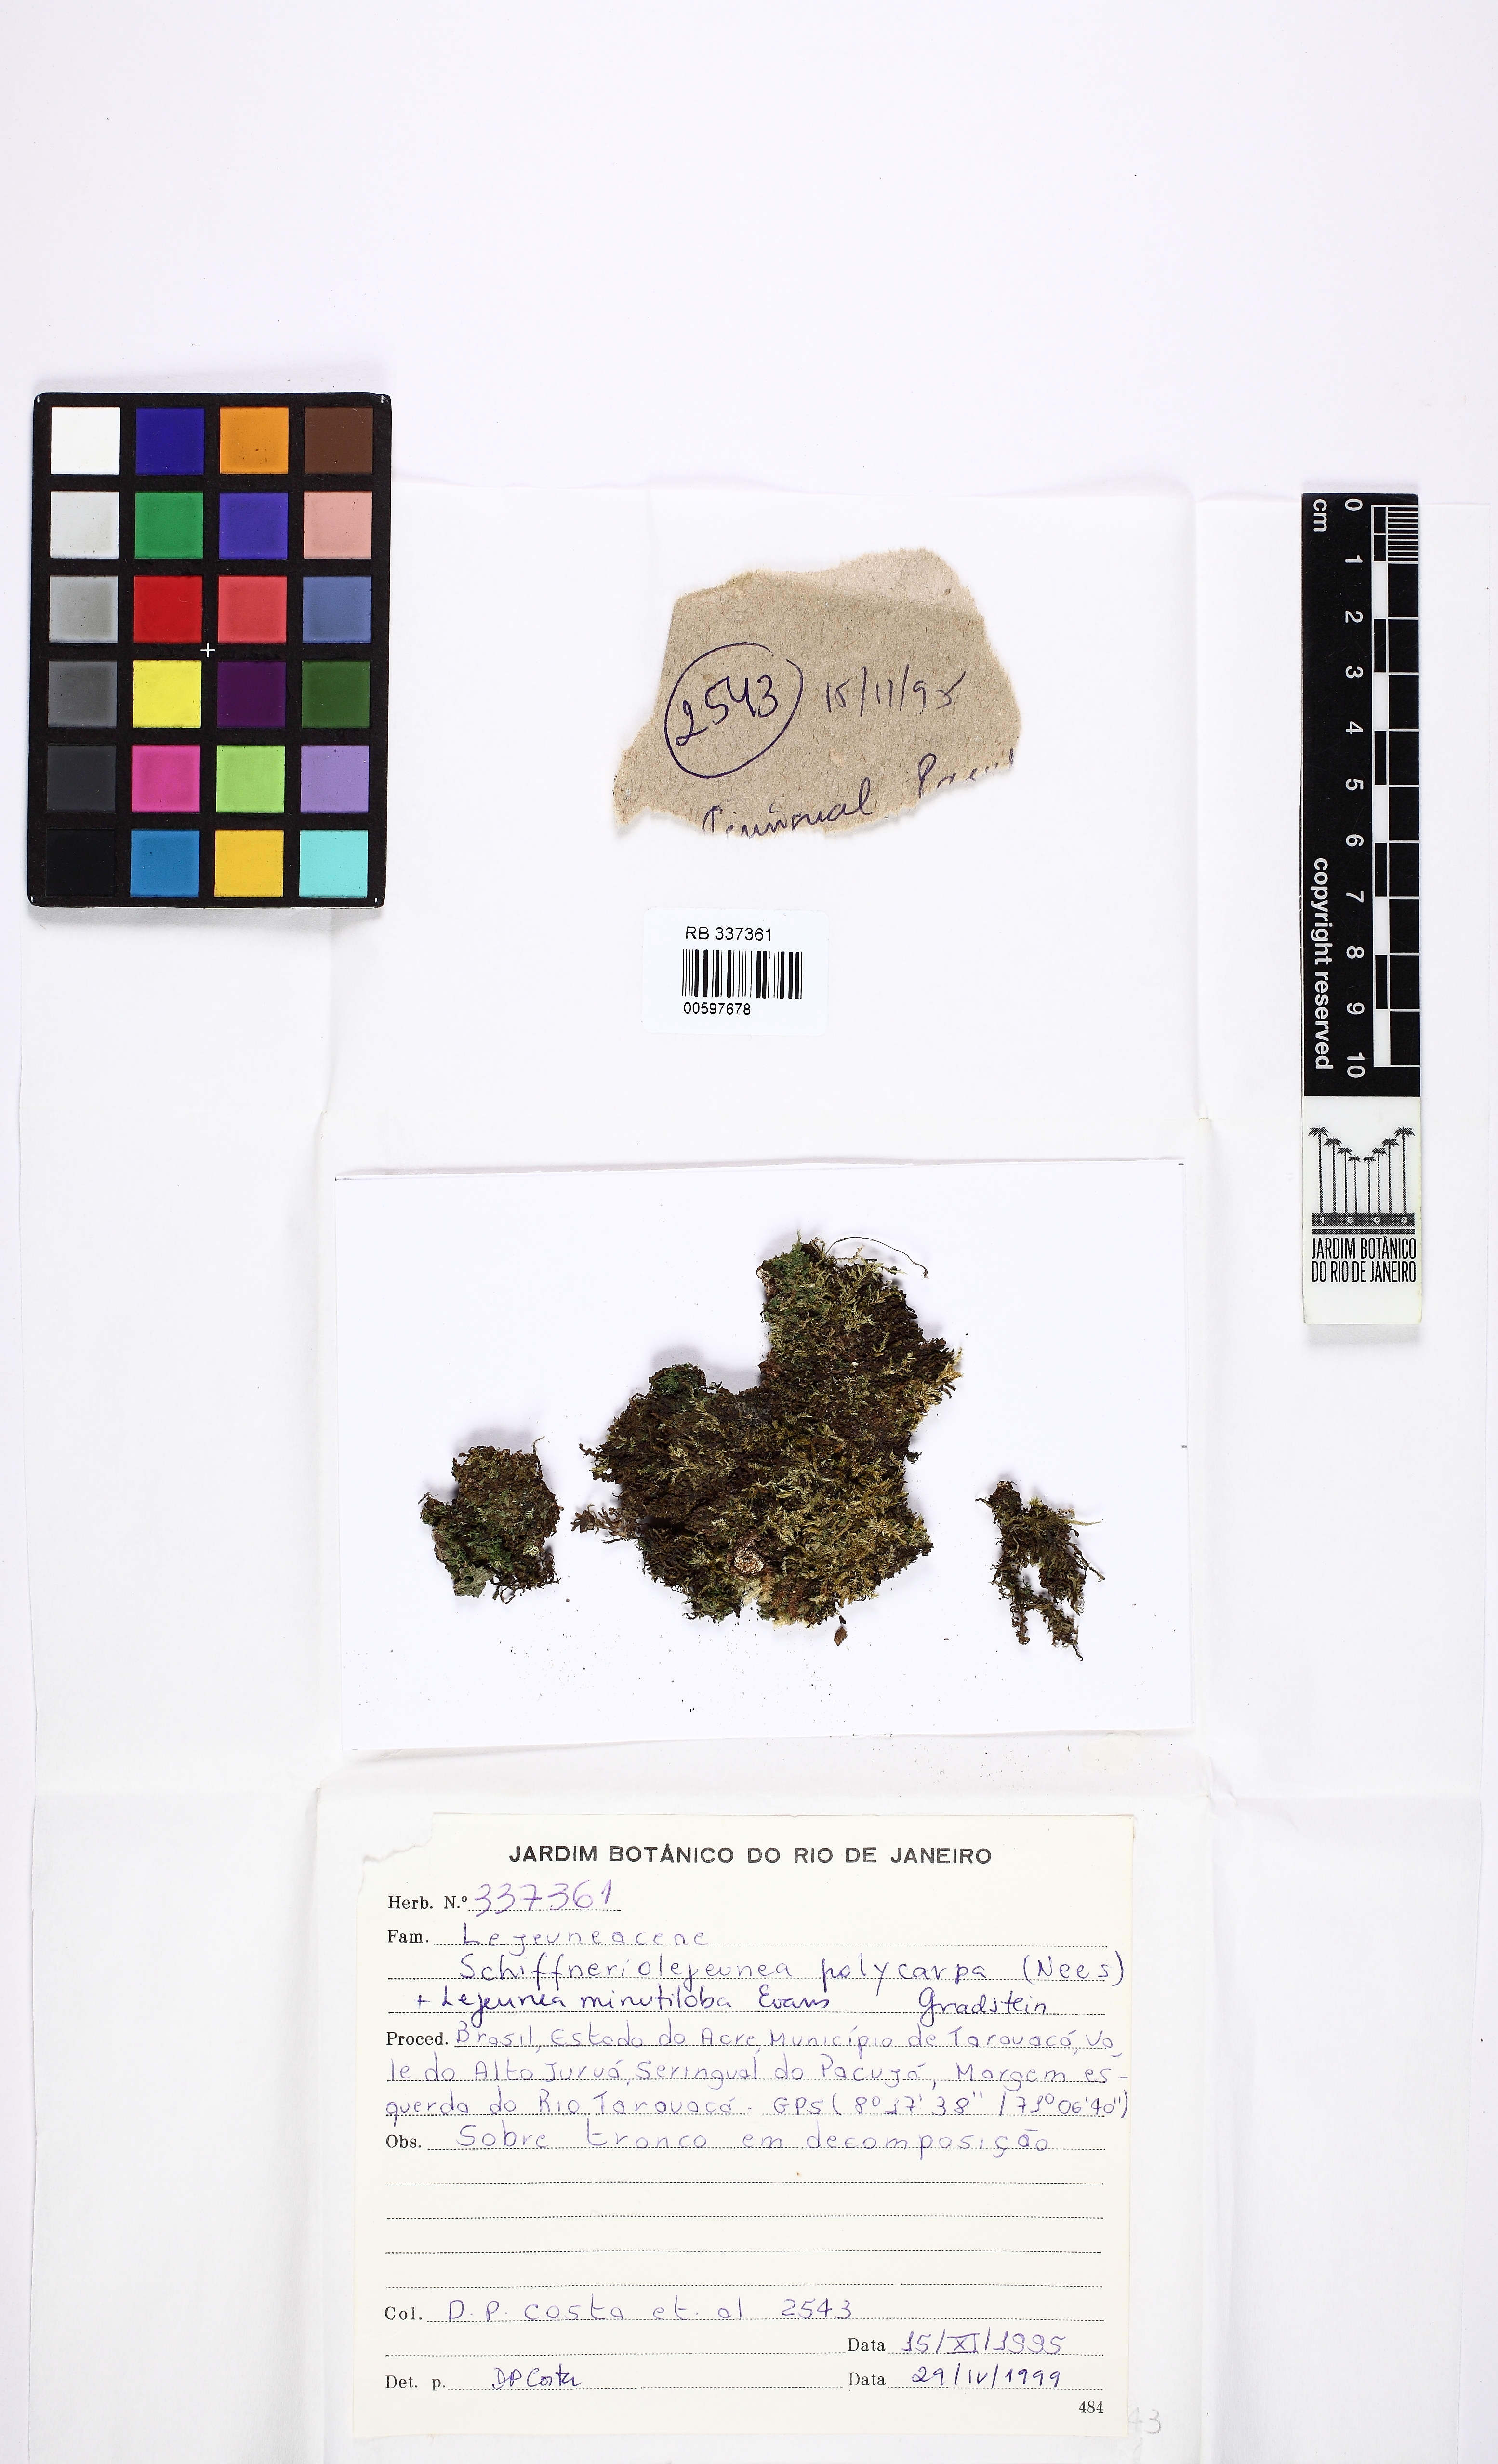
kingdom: Plantae
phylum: Marchantiophyta
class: Jungermanniopsida
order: Porellales
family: Lejeuneaceae
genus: Schiffneriolejeunea
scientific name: Schiffneriolejeunea polycarpa
